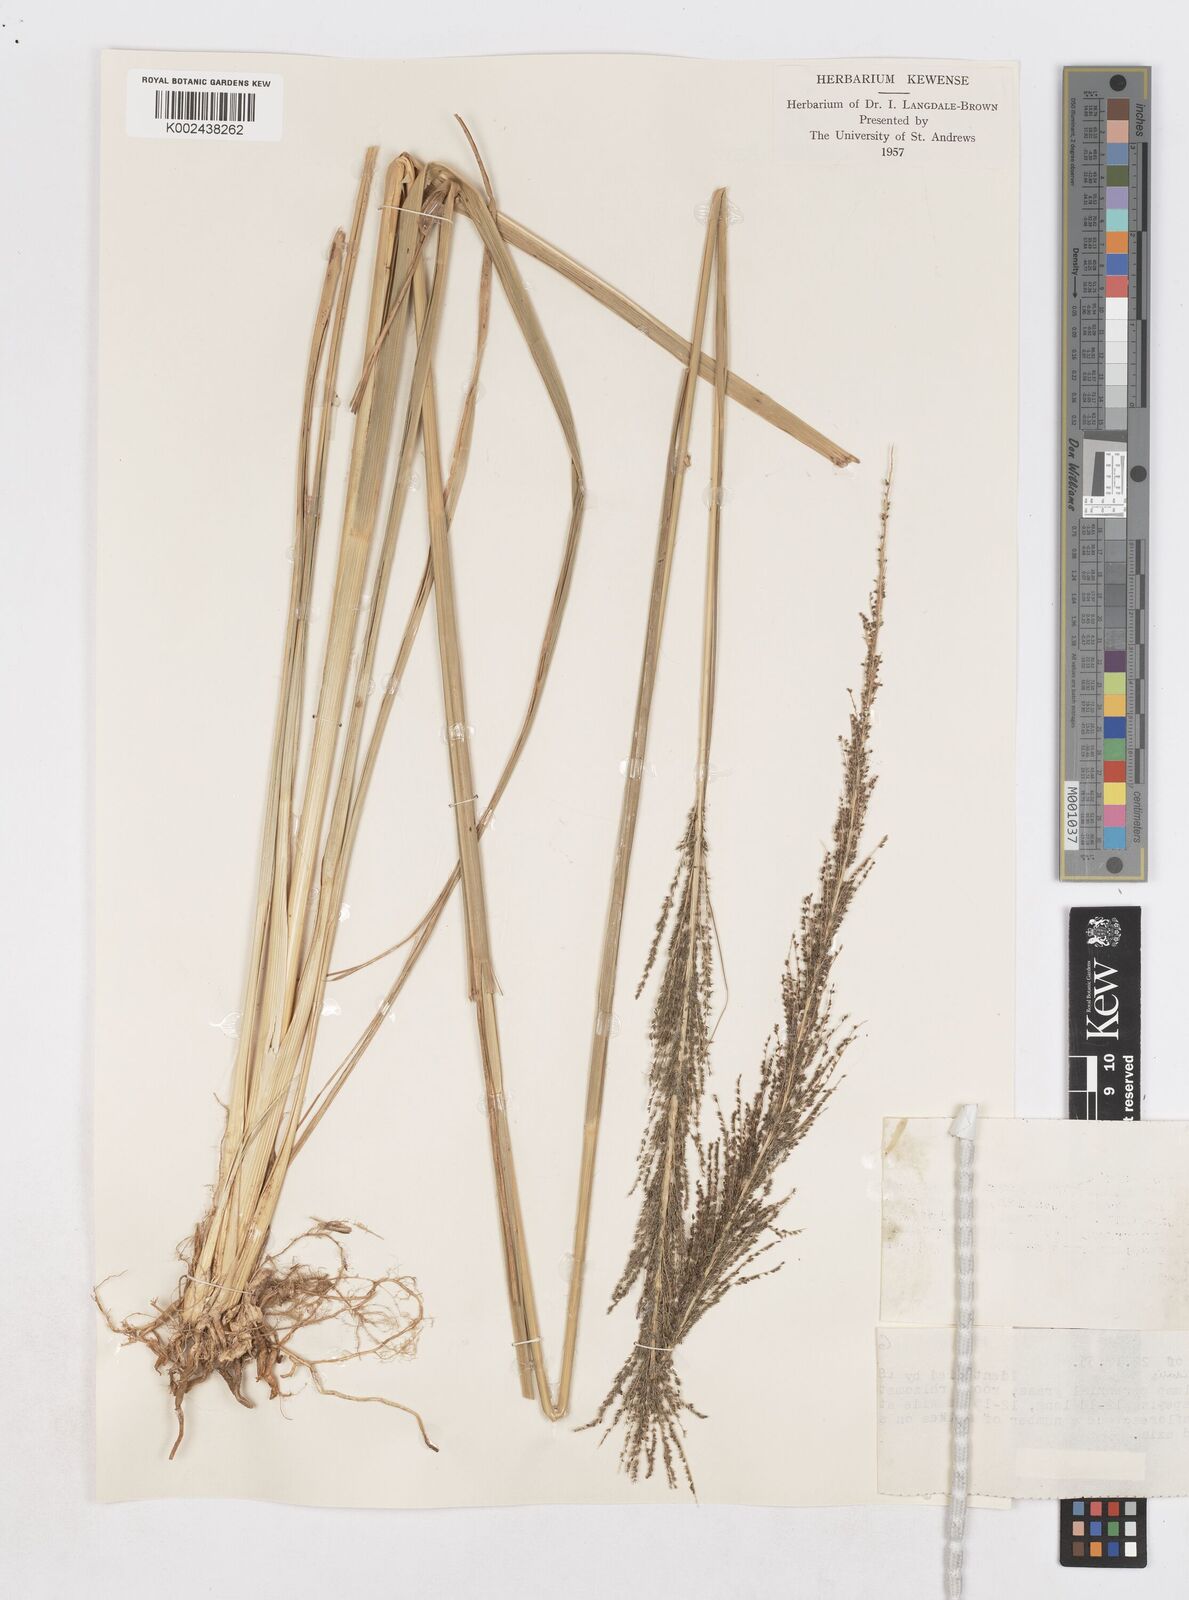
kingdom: Plantae
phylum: Tracheophyta
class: Liliopsida
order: Poales
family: Poaceae
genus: Sporobolus
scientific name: Sporobolus pyramidalis
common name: West indian dropseed
